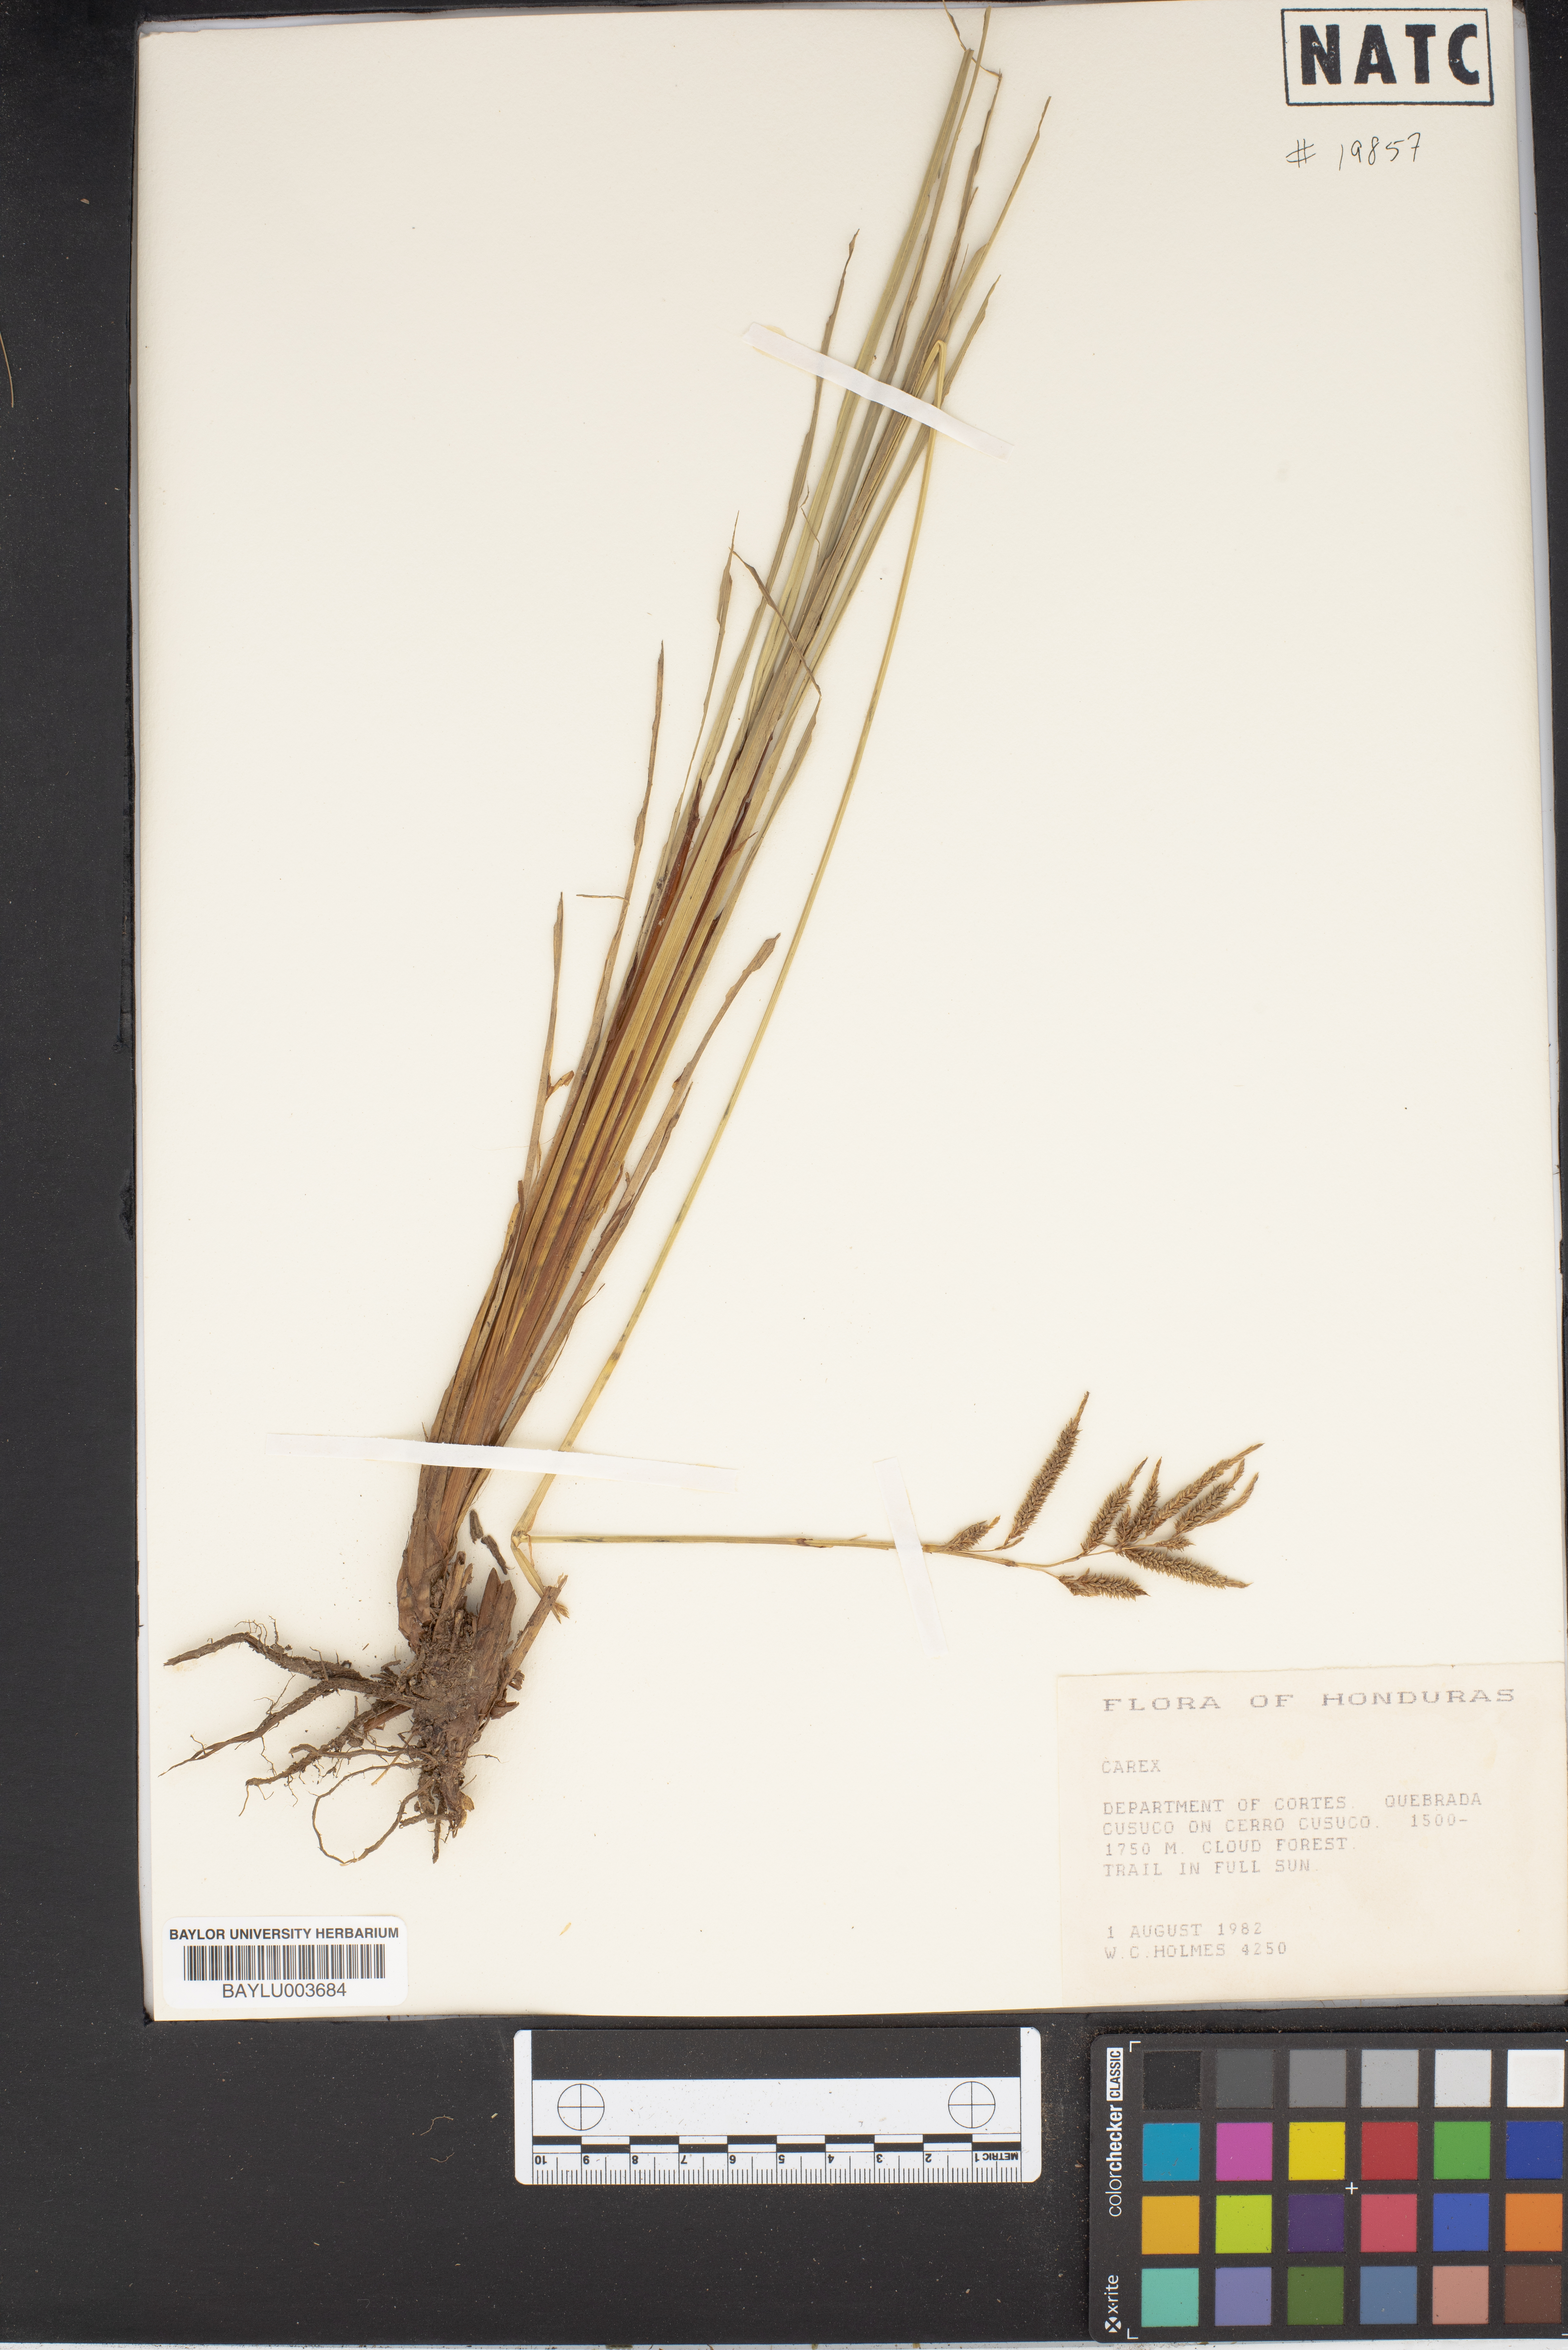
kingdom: Plantae
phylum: Tracheophyta
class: Liliopsida
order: Poales
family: Cyperaceae
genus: Carex
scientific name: Carex
